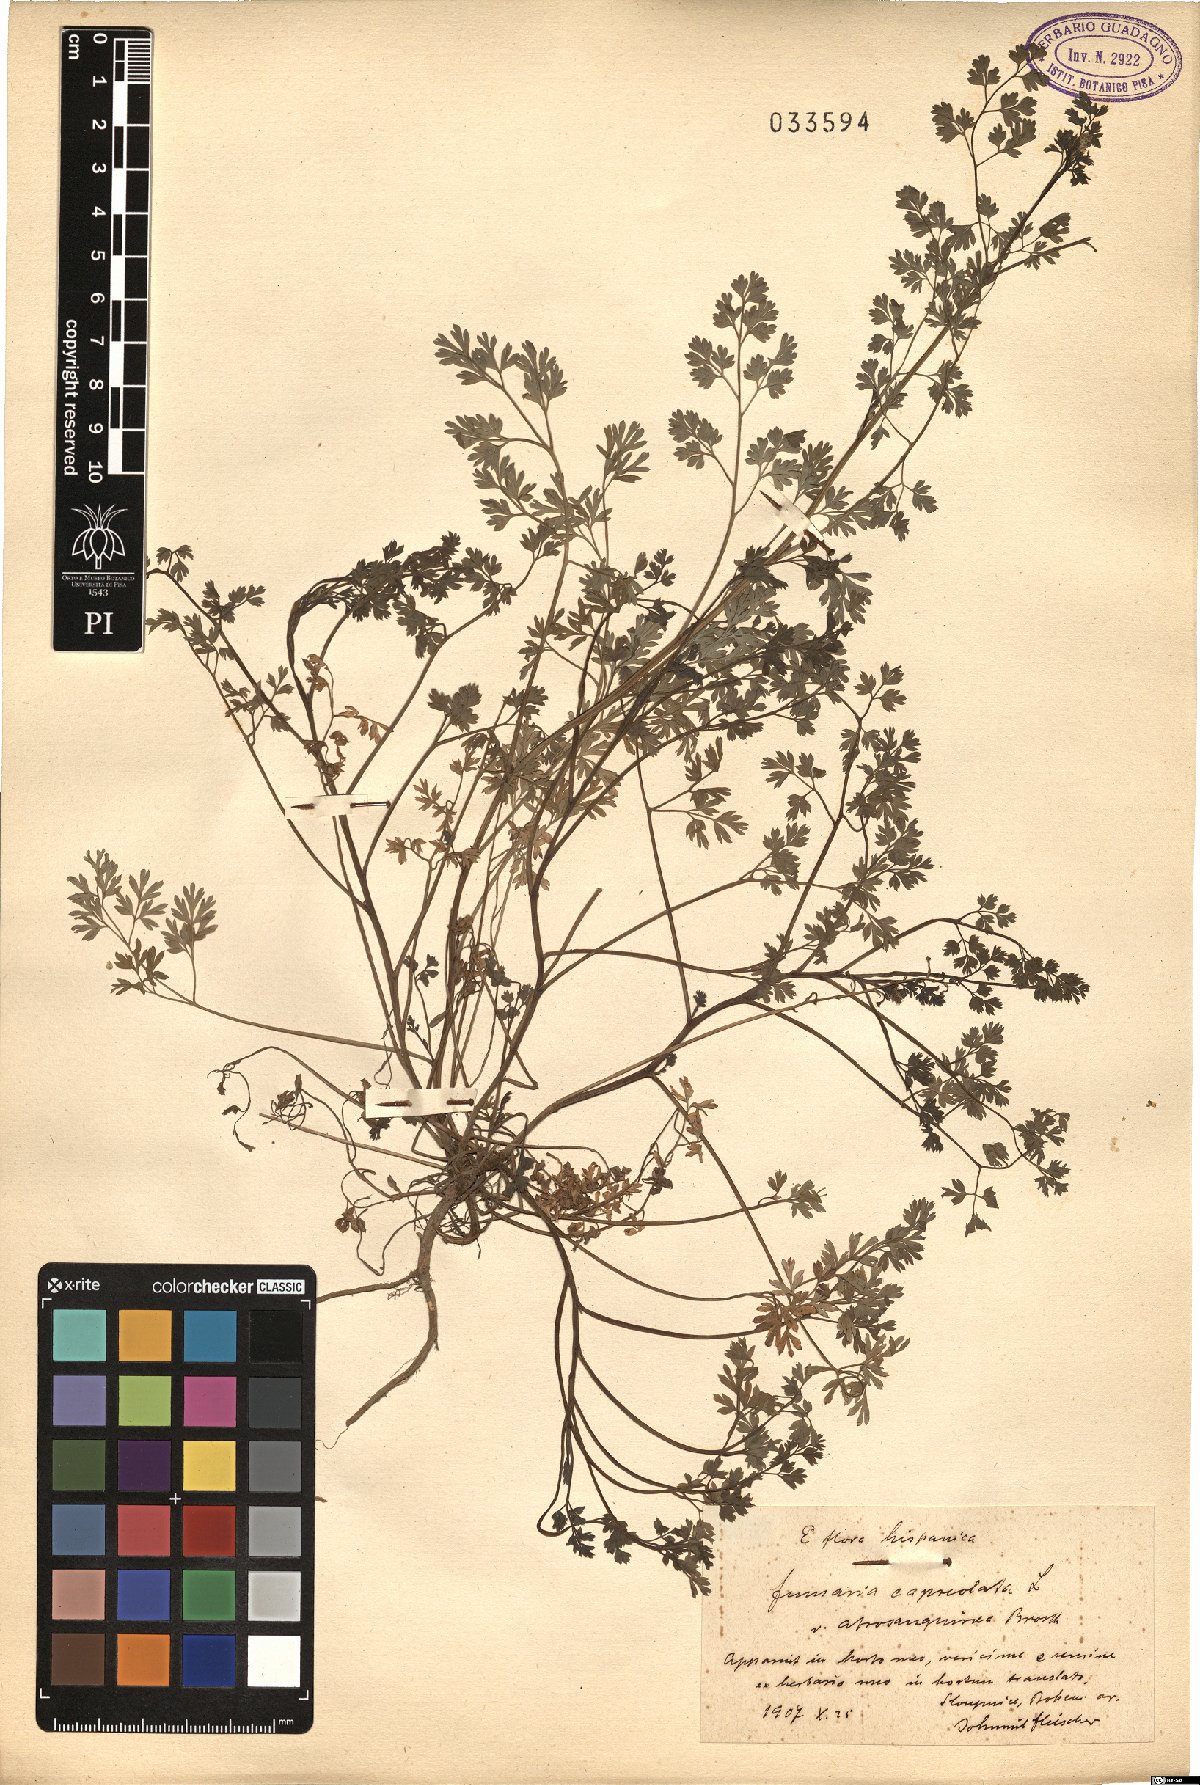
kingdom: Plantae
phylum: Tracheophyta
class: Magnoliopsida
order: Ranunculales
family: Papaveraceae
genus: Fumaria
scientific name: Fumaria capreolata
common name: White ramping-fumitory
